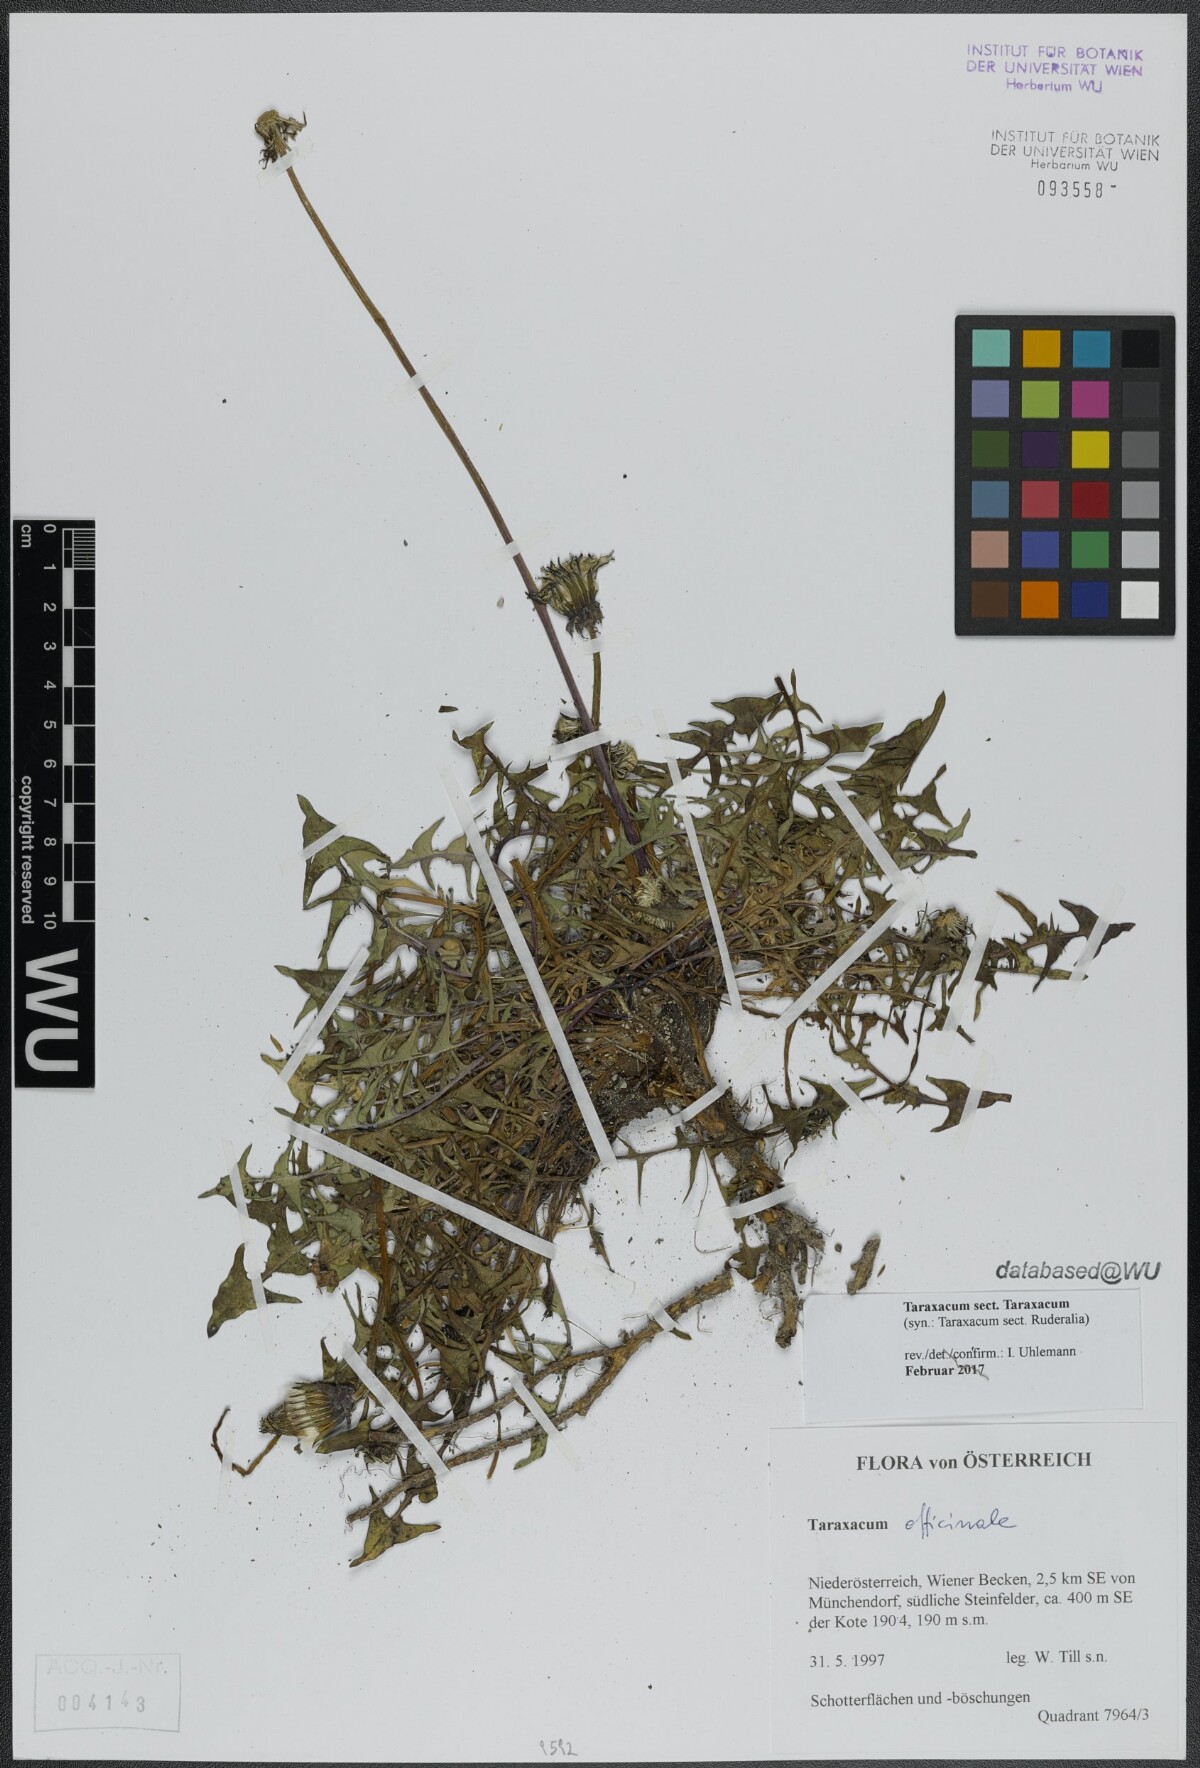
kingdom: Plantae
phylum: Tracheophyta
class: Magnoliopsida
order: Asterales
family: Asteraceae
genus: Taraxacum
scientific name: Taraxacum
